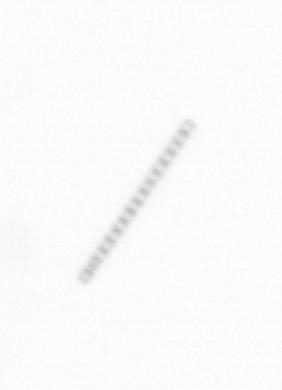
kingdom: Chromista
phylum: Ochrophyta
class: Bacillariophyceae
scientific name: Bacillariophyceae
